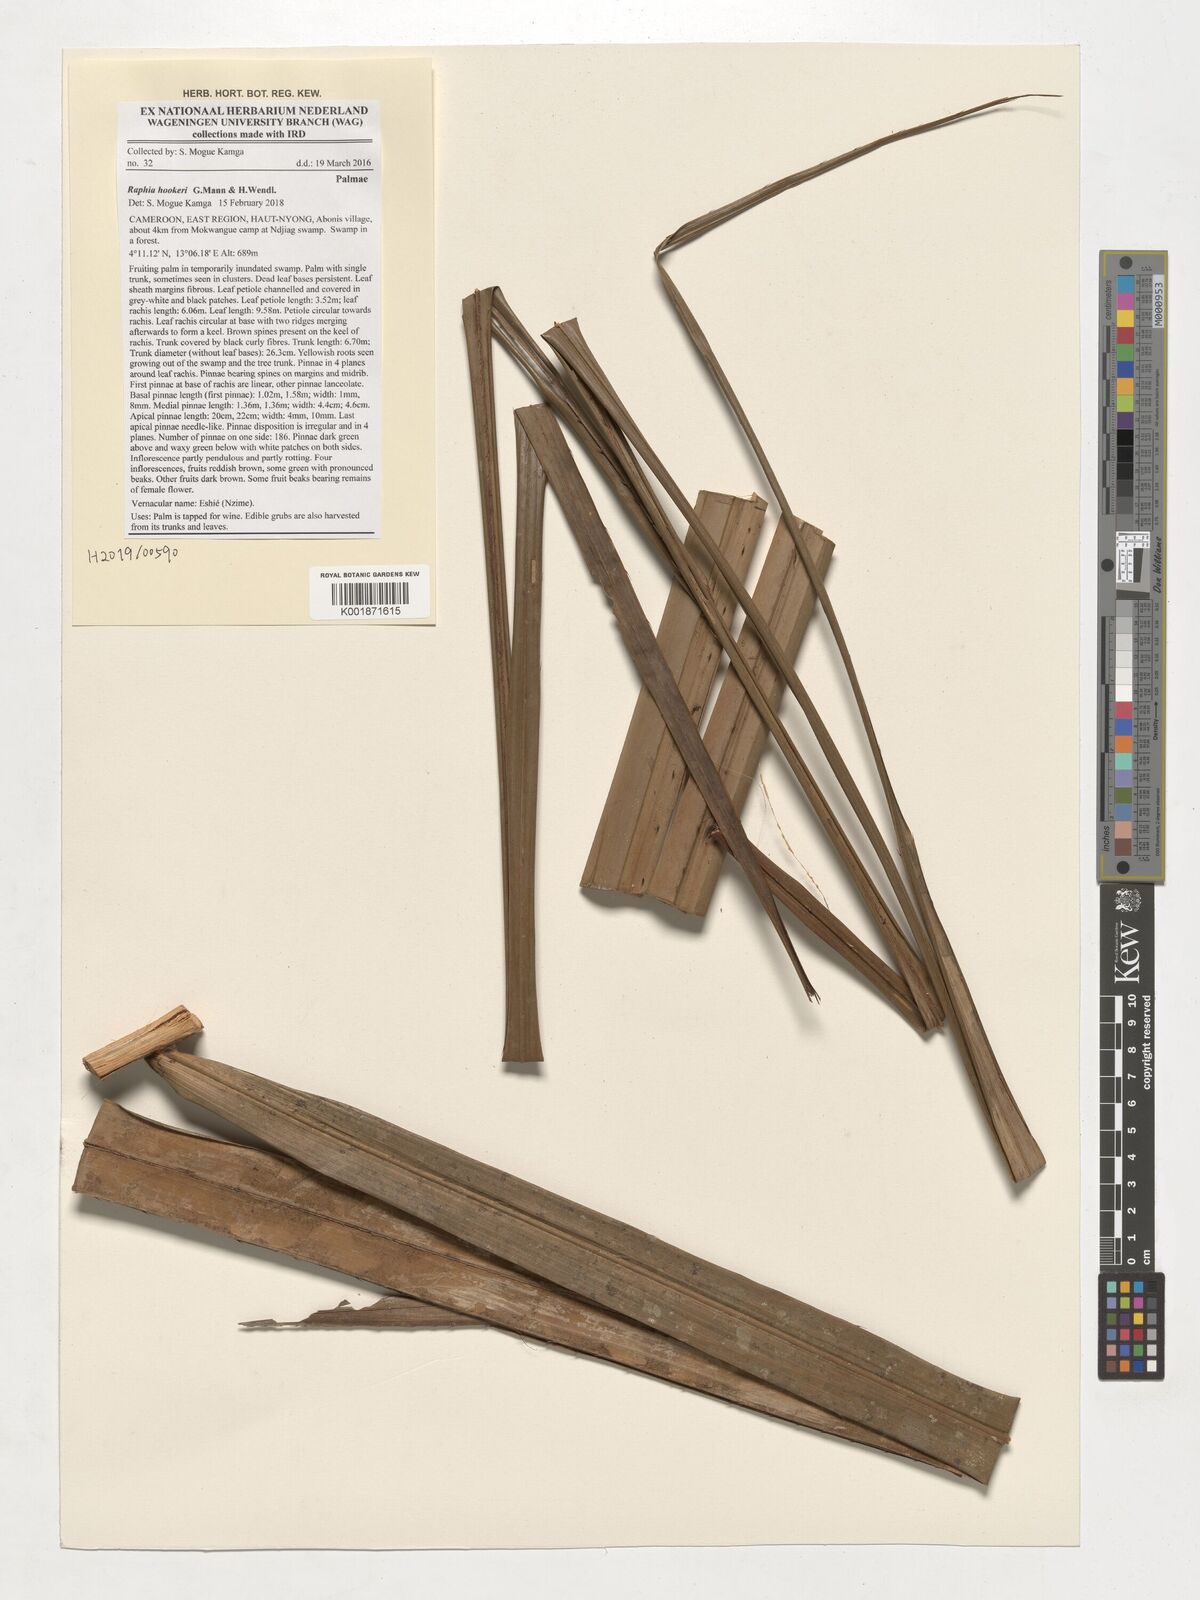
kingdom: Plantae
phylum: Tracheophyta
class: Liliopsida
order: Arecales
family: Arecaceae
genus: Raphia
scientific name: Raphia hookeri
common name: Wine palm
